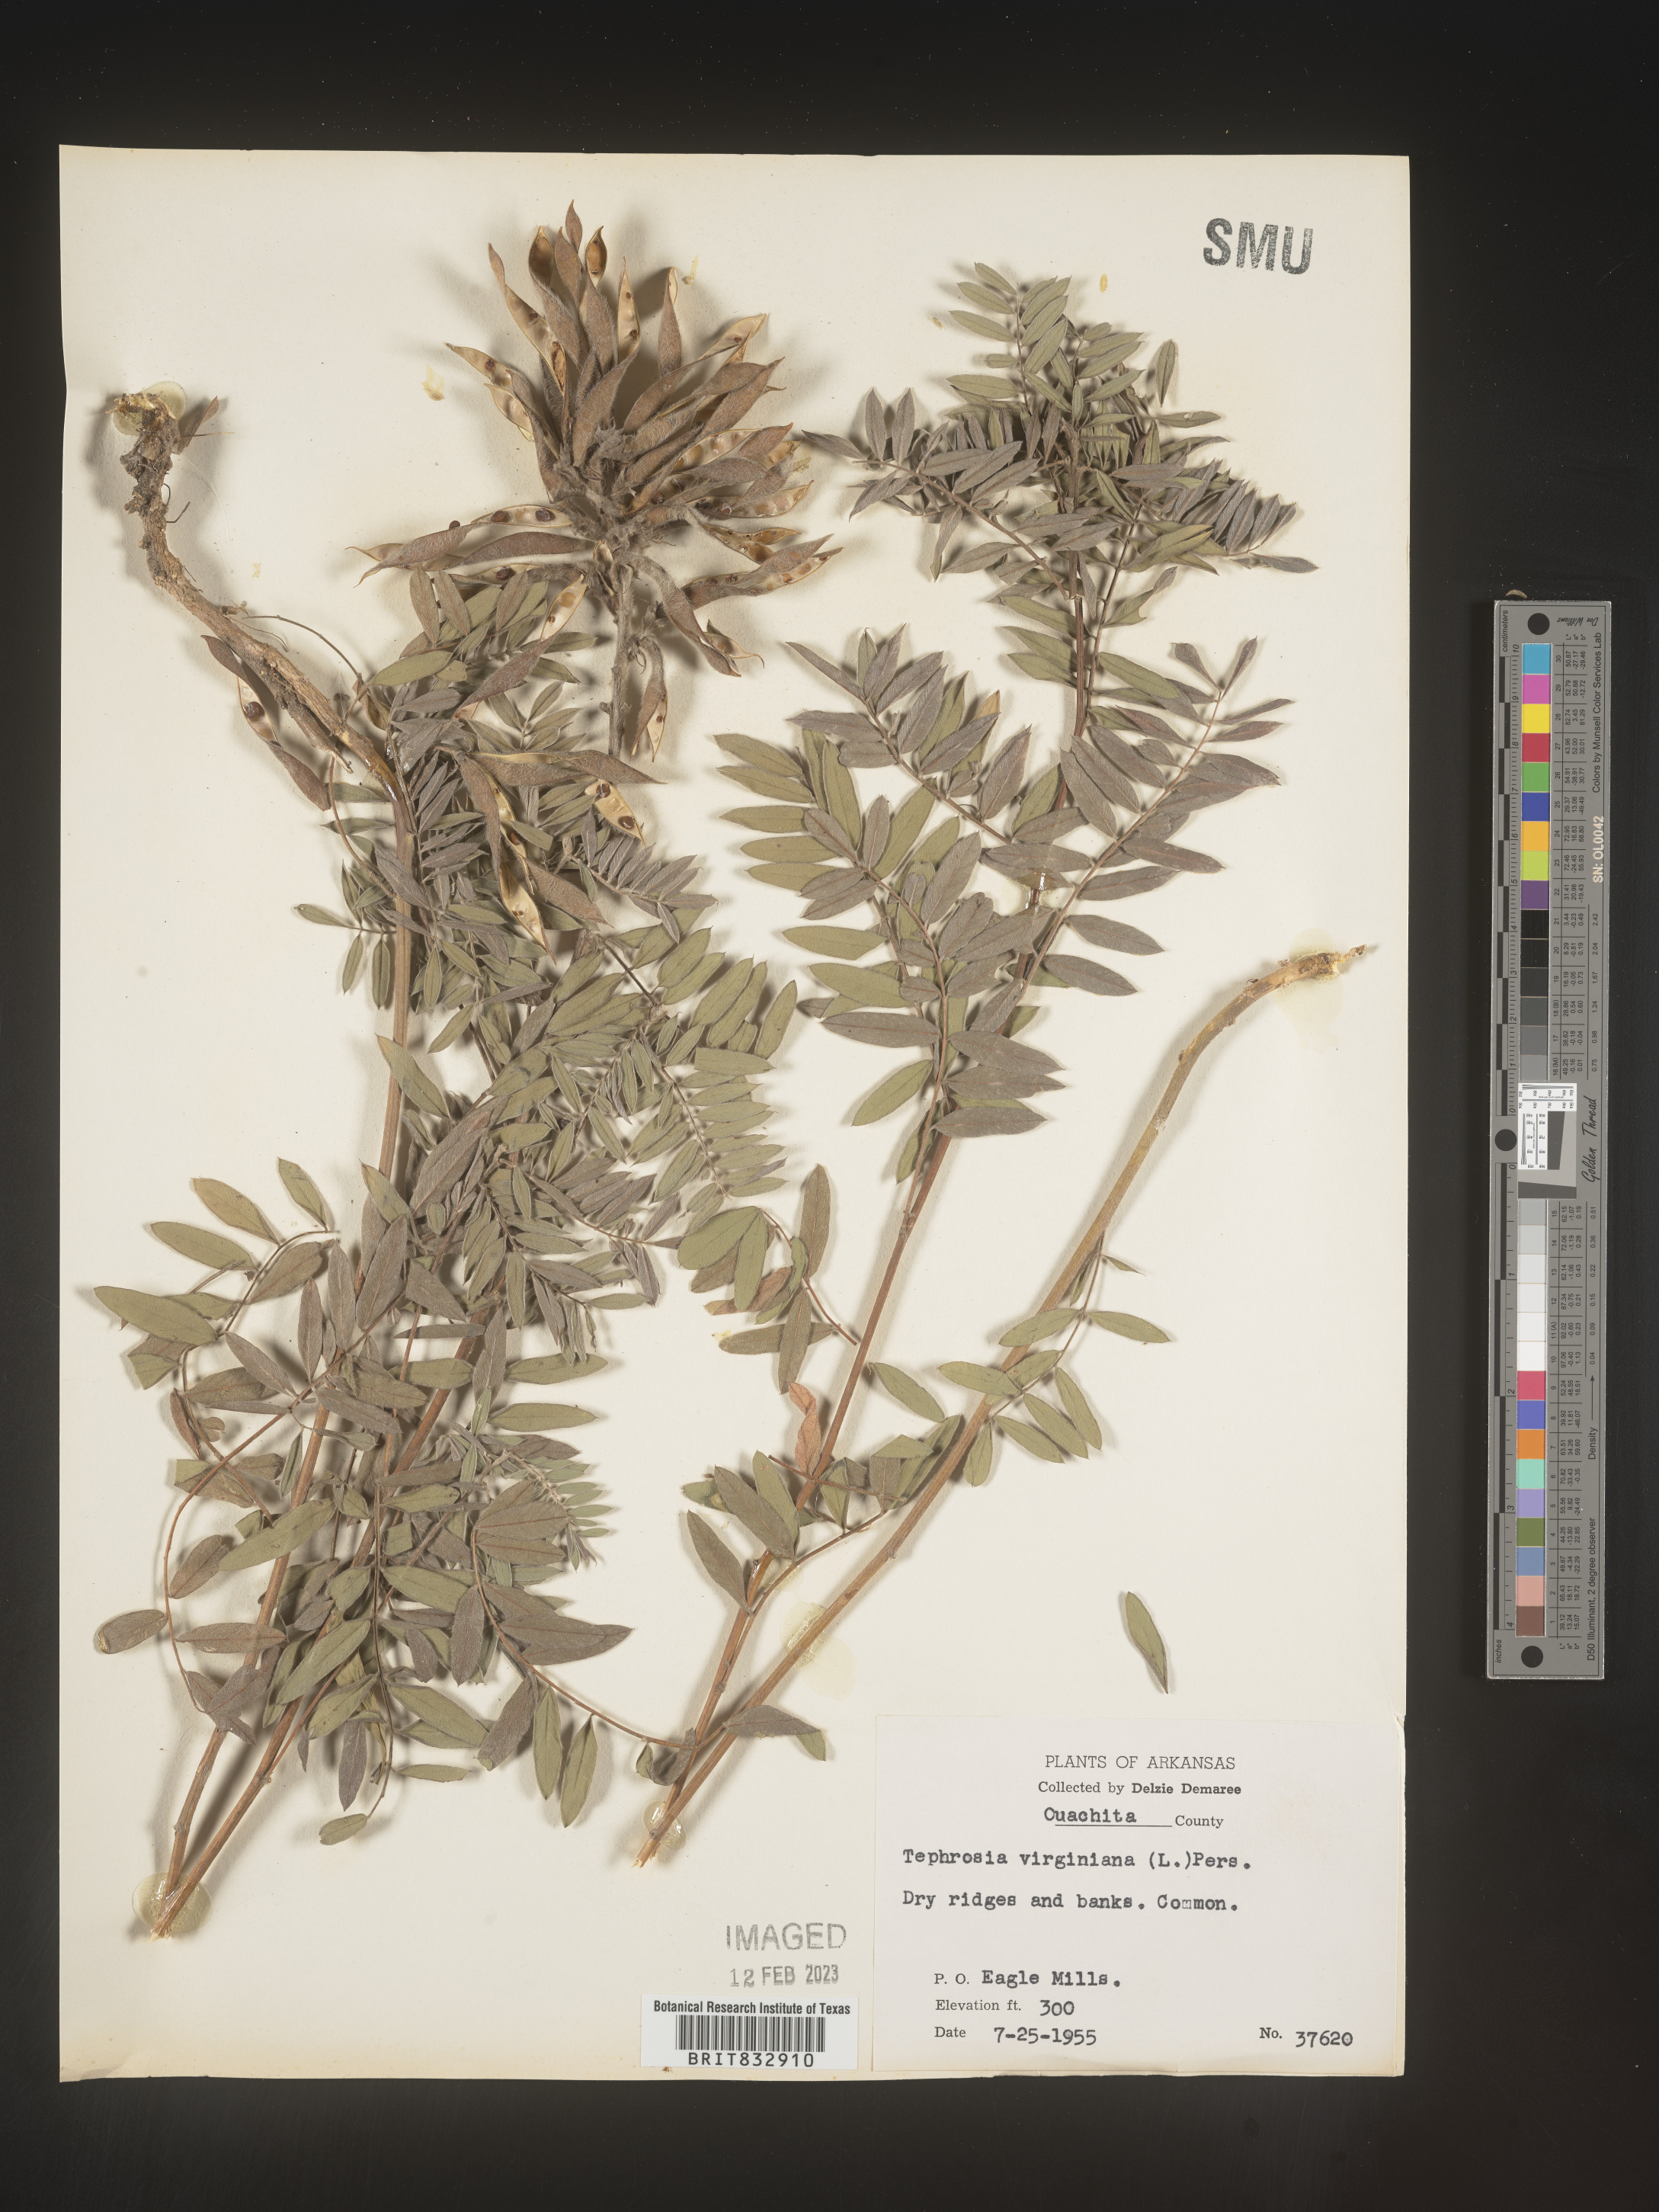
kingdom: Plantae
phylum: Tracheophyta
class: Magnoliopsida
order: Fabales
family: Fabaceae
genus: Tephrosia
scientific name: Tephrosia virginiana
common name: Rabbit-pea
